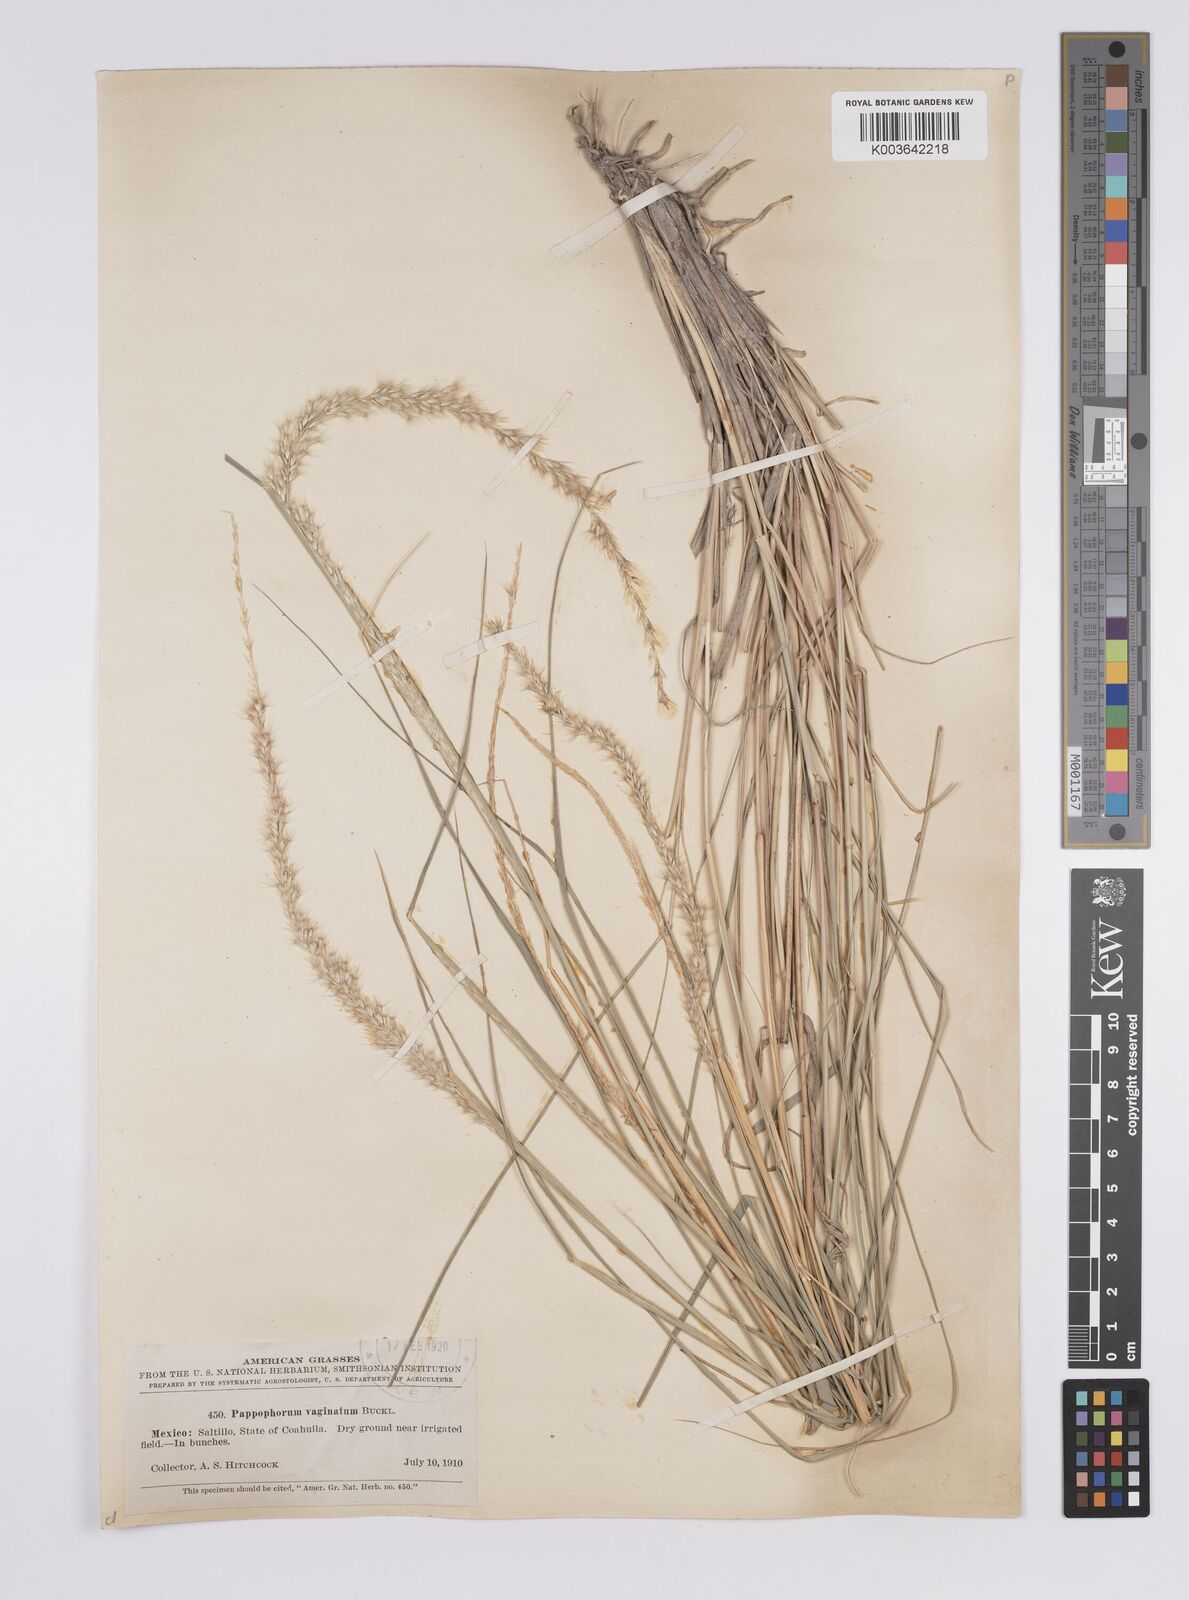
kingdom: Plantae
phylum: Tracheophyta
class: Liliopsida
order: Poales
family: Poaceae
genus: Pappophorum
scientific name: Pappophorum mucronulatum
